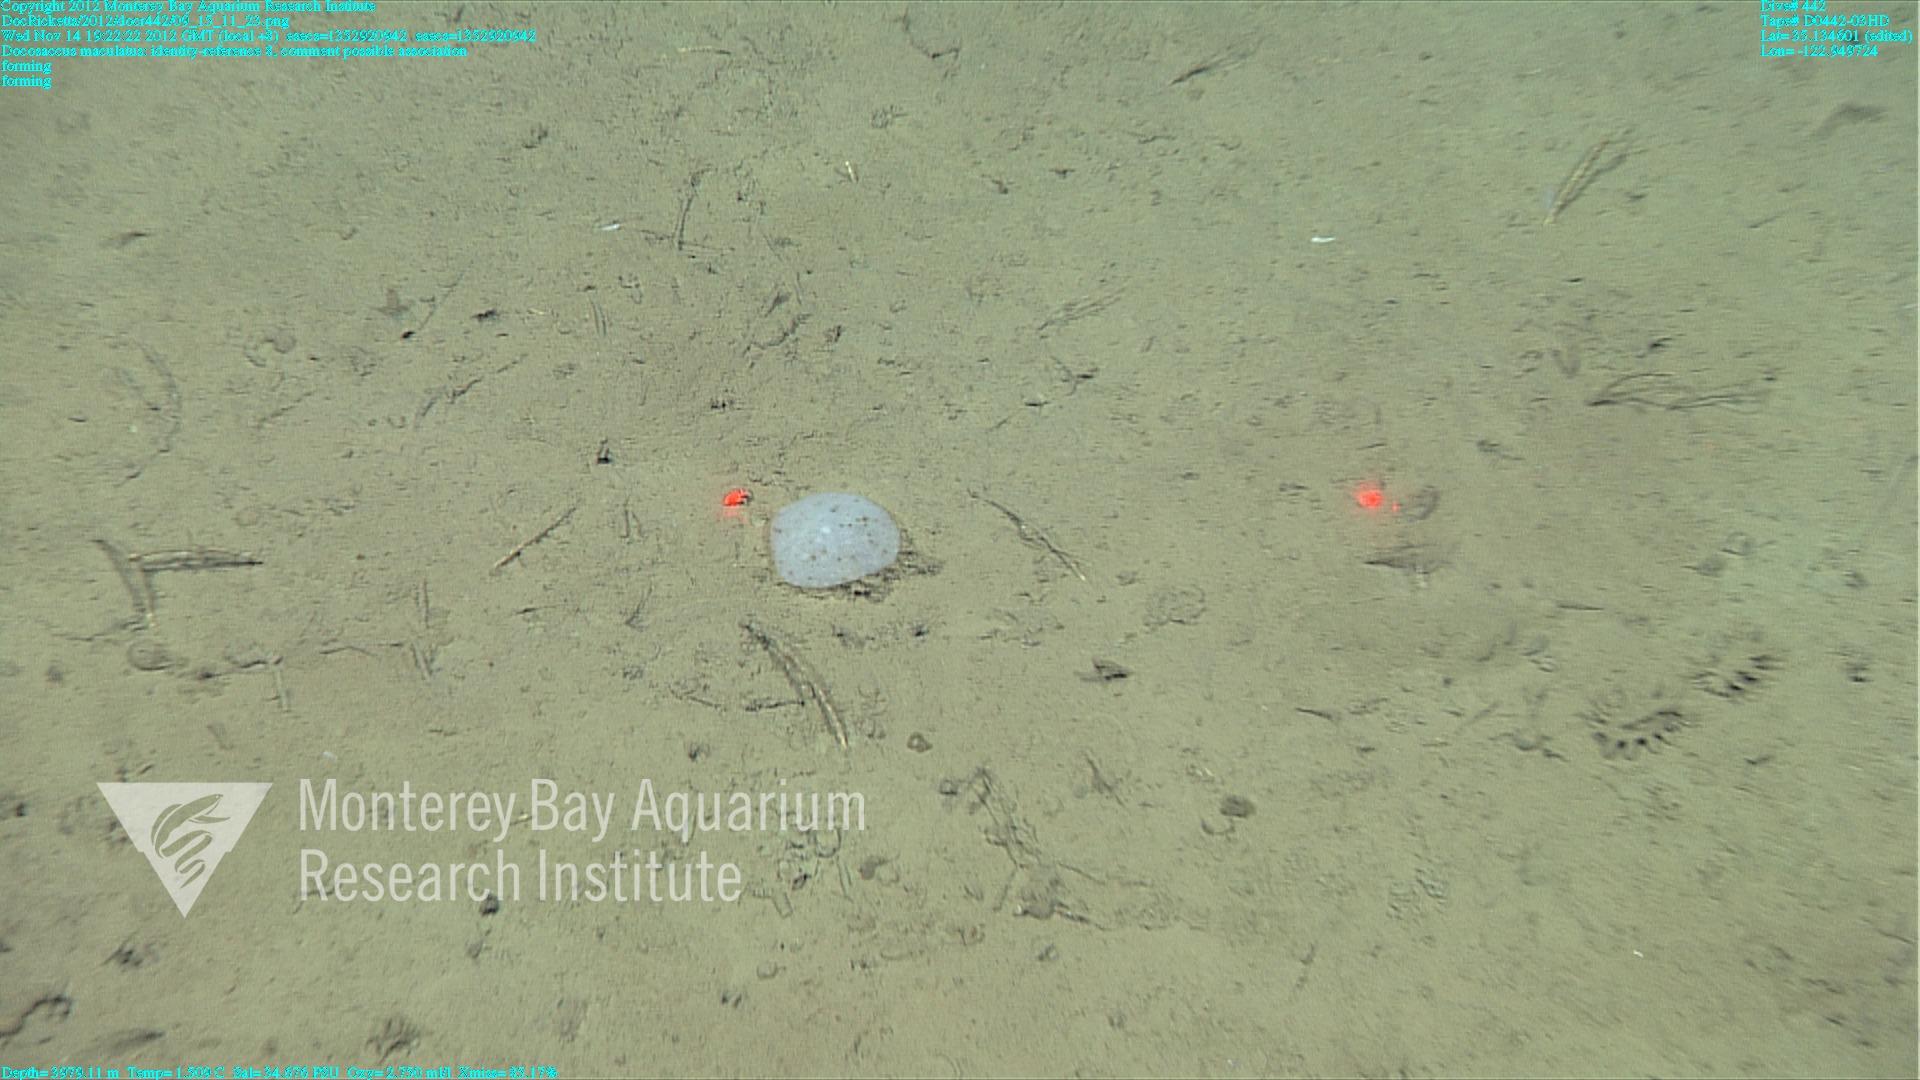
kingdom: Animalia
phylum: Porifera
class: Hexactinellida
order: Lyssacinosida
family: Euplectellidae
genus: Docosaccus
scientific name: Docosaccus maculatus
